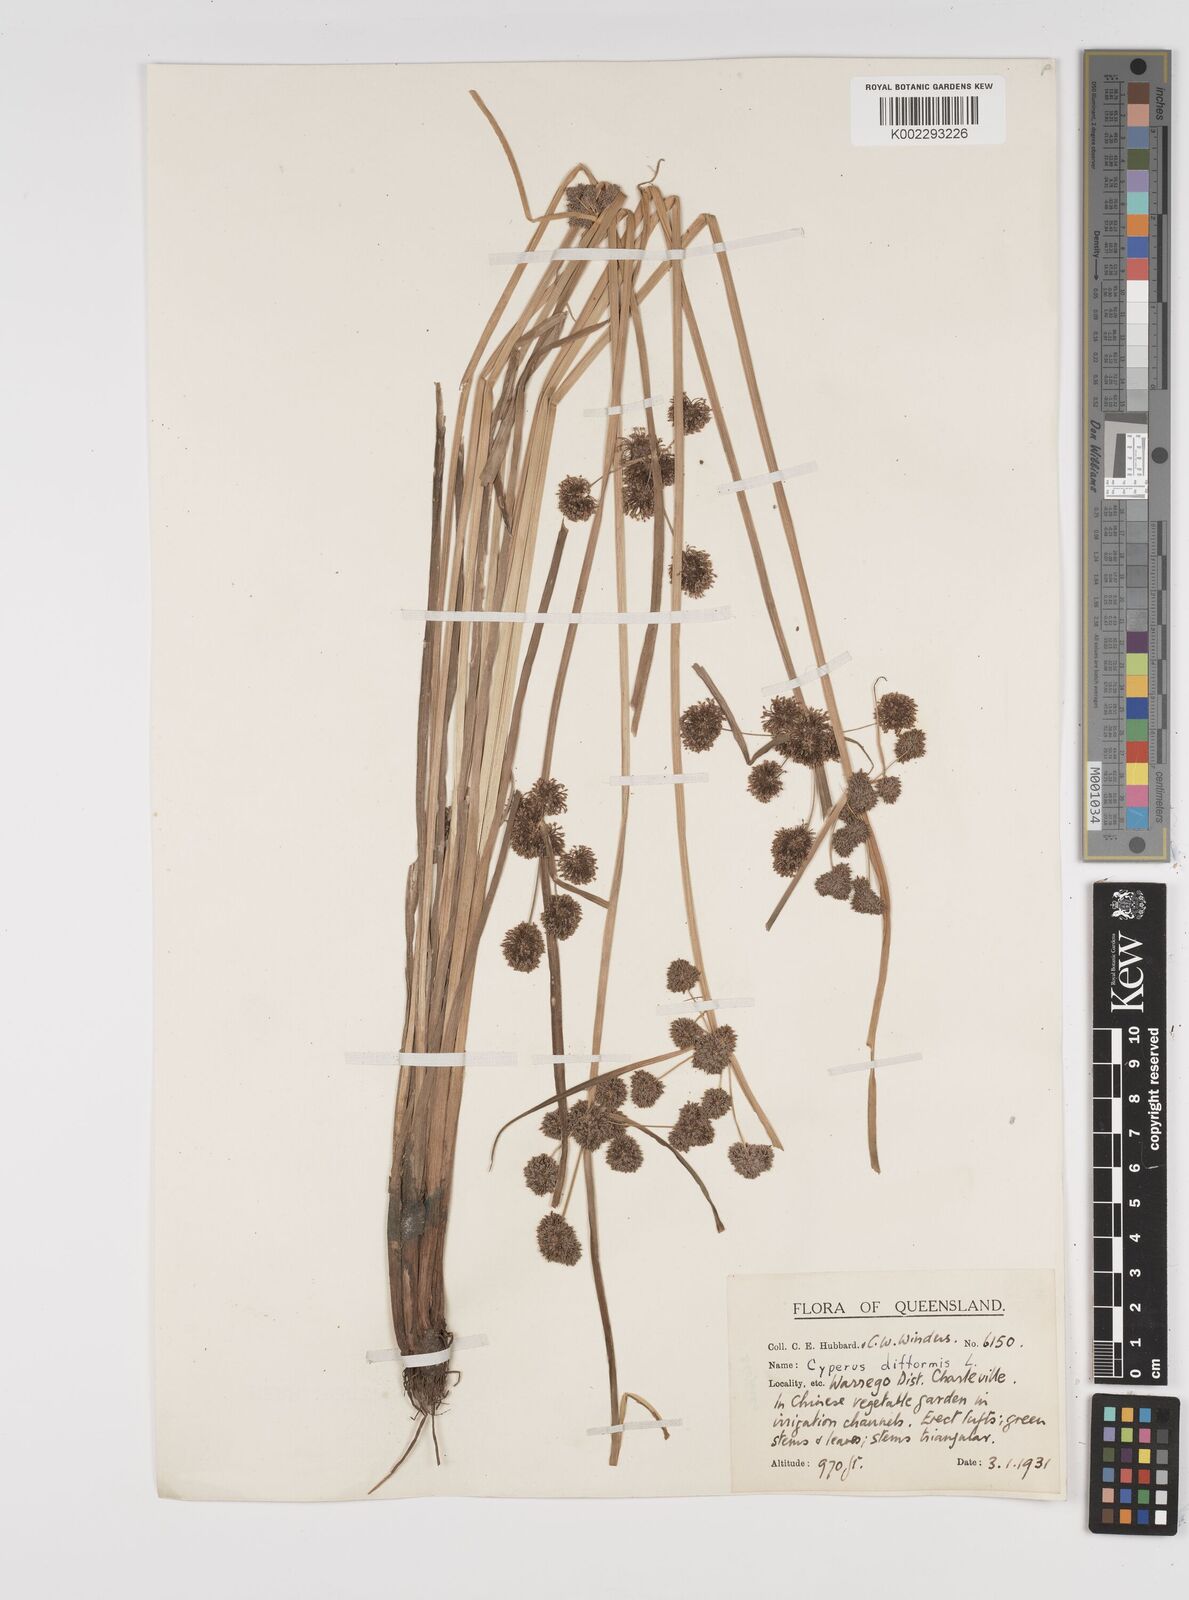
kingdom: Plantae
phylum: Tracheophyta
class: Liliopsida
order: Poales
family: Cyperaceae
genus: Cyperus
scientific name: Cyperus difformis
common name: Variable flatsedge
